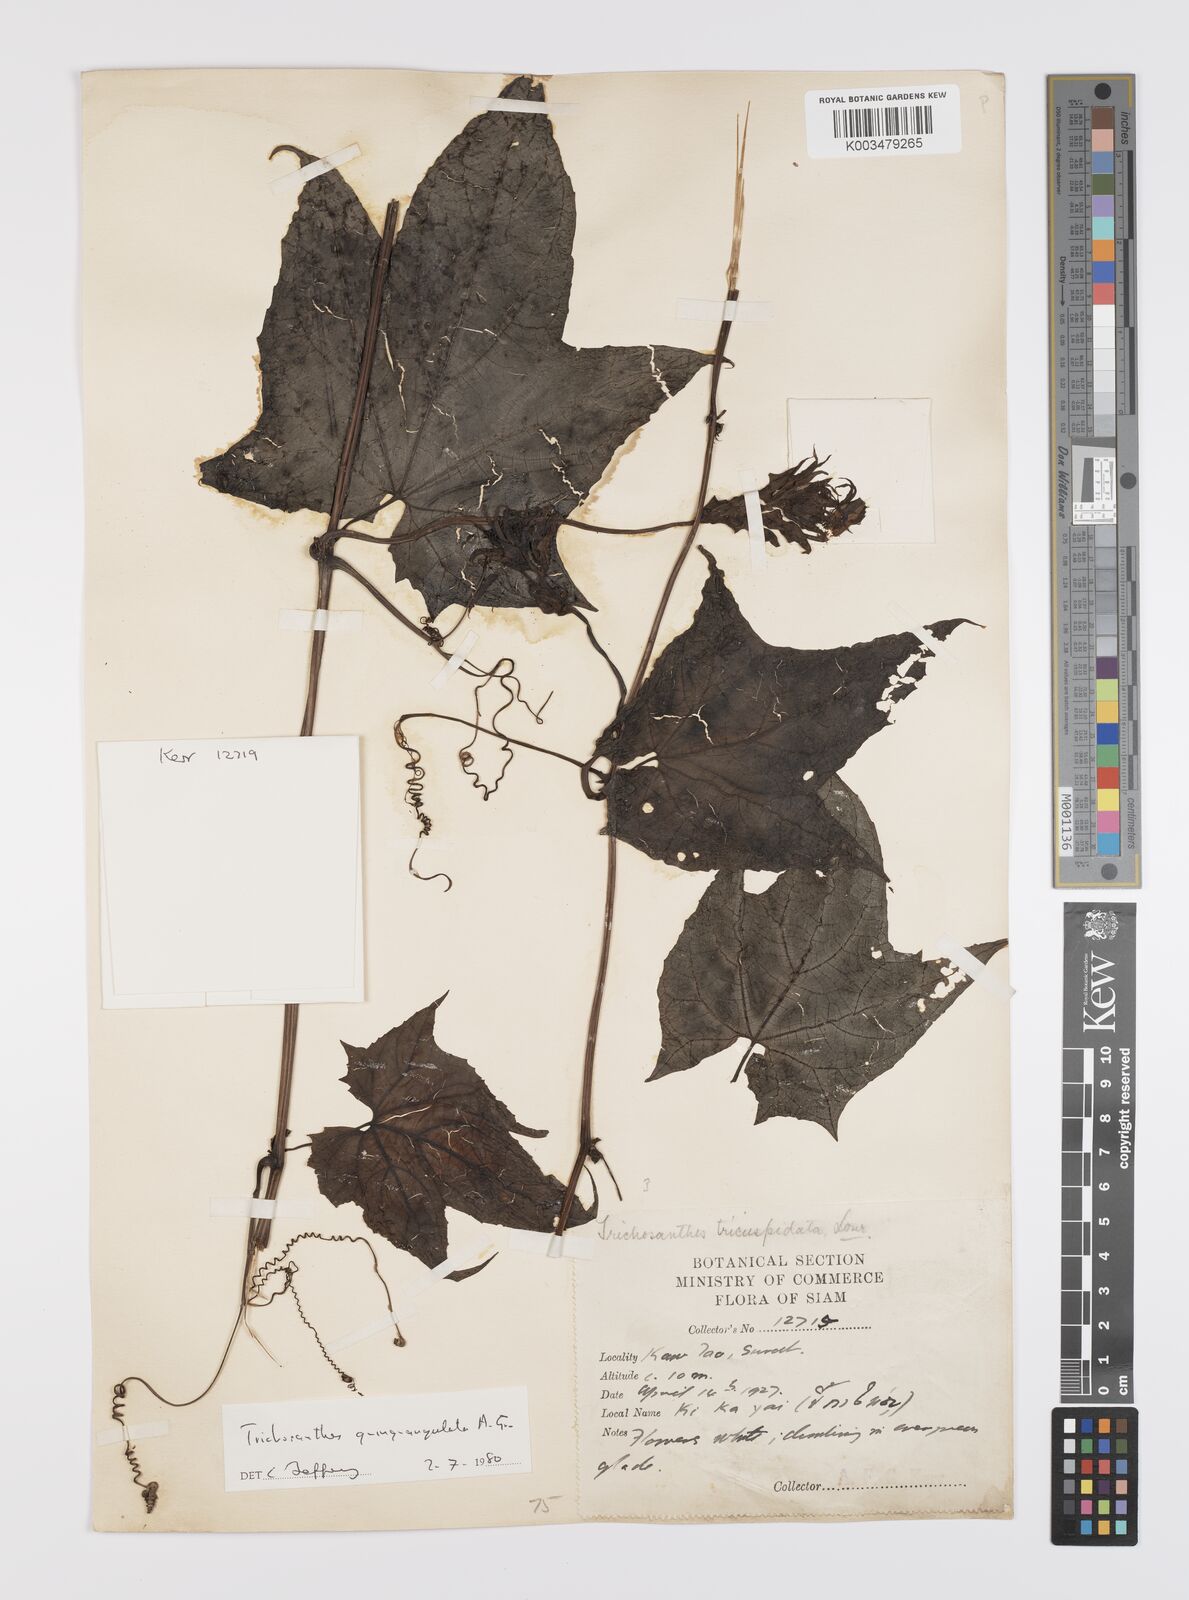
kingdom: Plantae
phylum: Tracheophyta
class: Magnoliopsida
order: Cucurbitales
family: Cucurbitaceae
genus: Trichosanthes
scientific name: Trichosanthes quinquangulata
